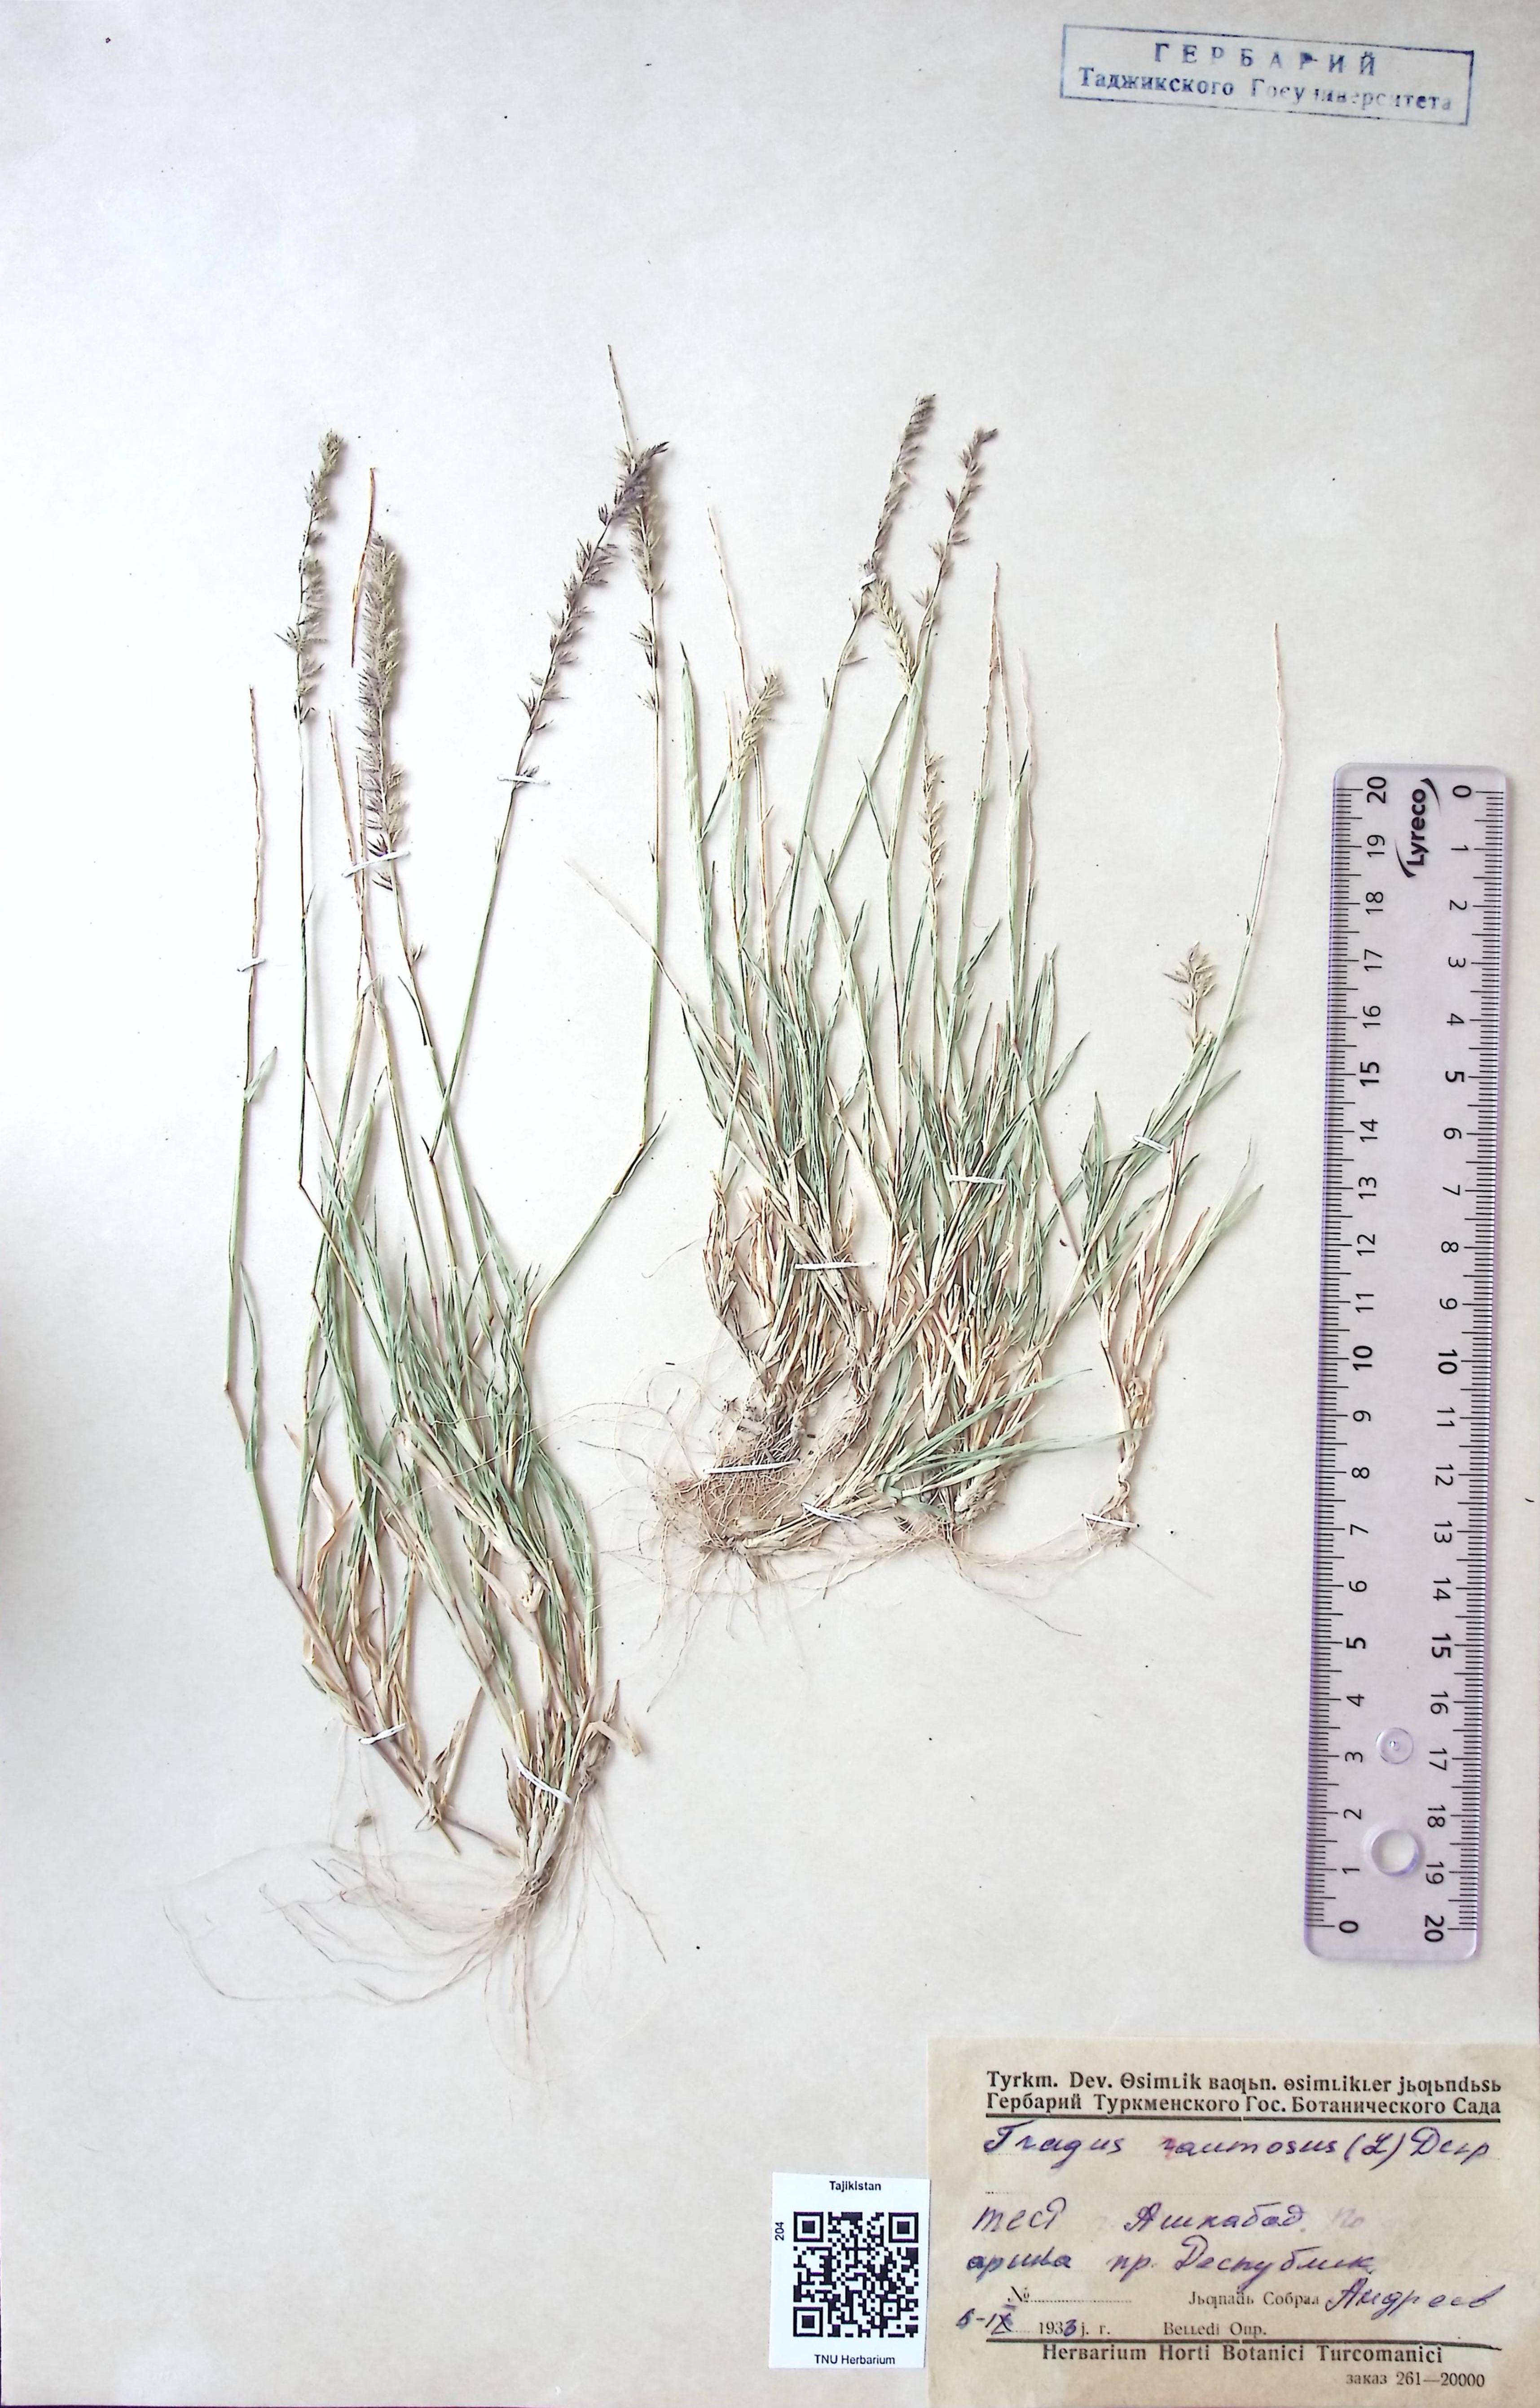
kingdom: Plantae
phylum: Tracheophyta
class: Liliopsida
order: Poales
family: Poaceae
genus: Tragus
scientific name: Tragus racemosus
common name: European bur-grass
